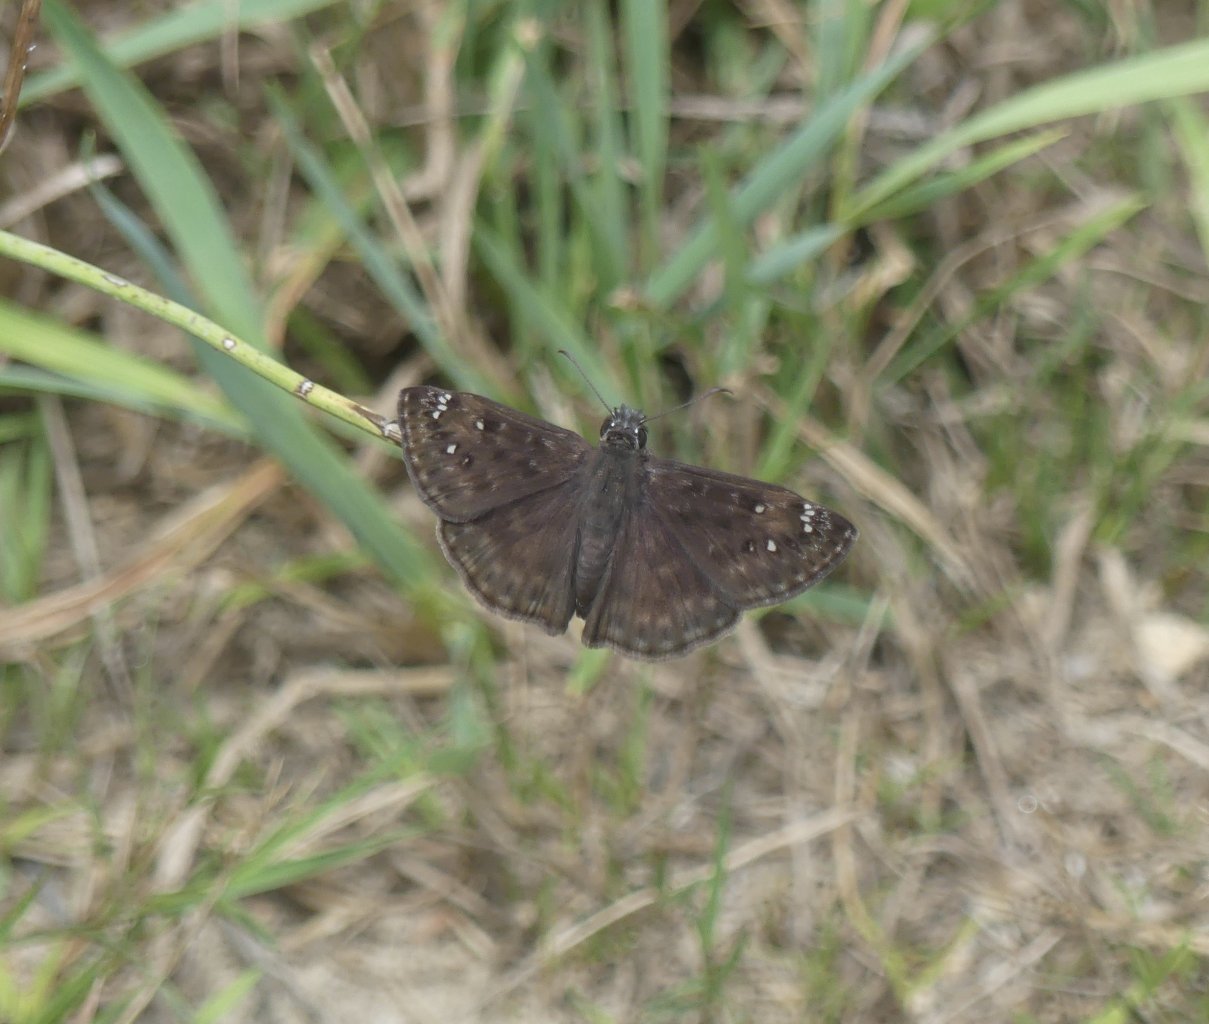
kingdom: Animalia
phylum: Arthropoda
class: Insecta
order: Lepidoptera
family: Hesperiidae
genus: Gesta
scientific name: Gesta
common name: Horace's Duskywing
